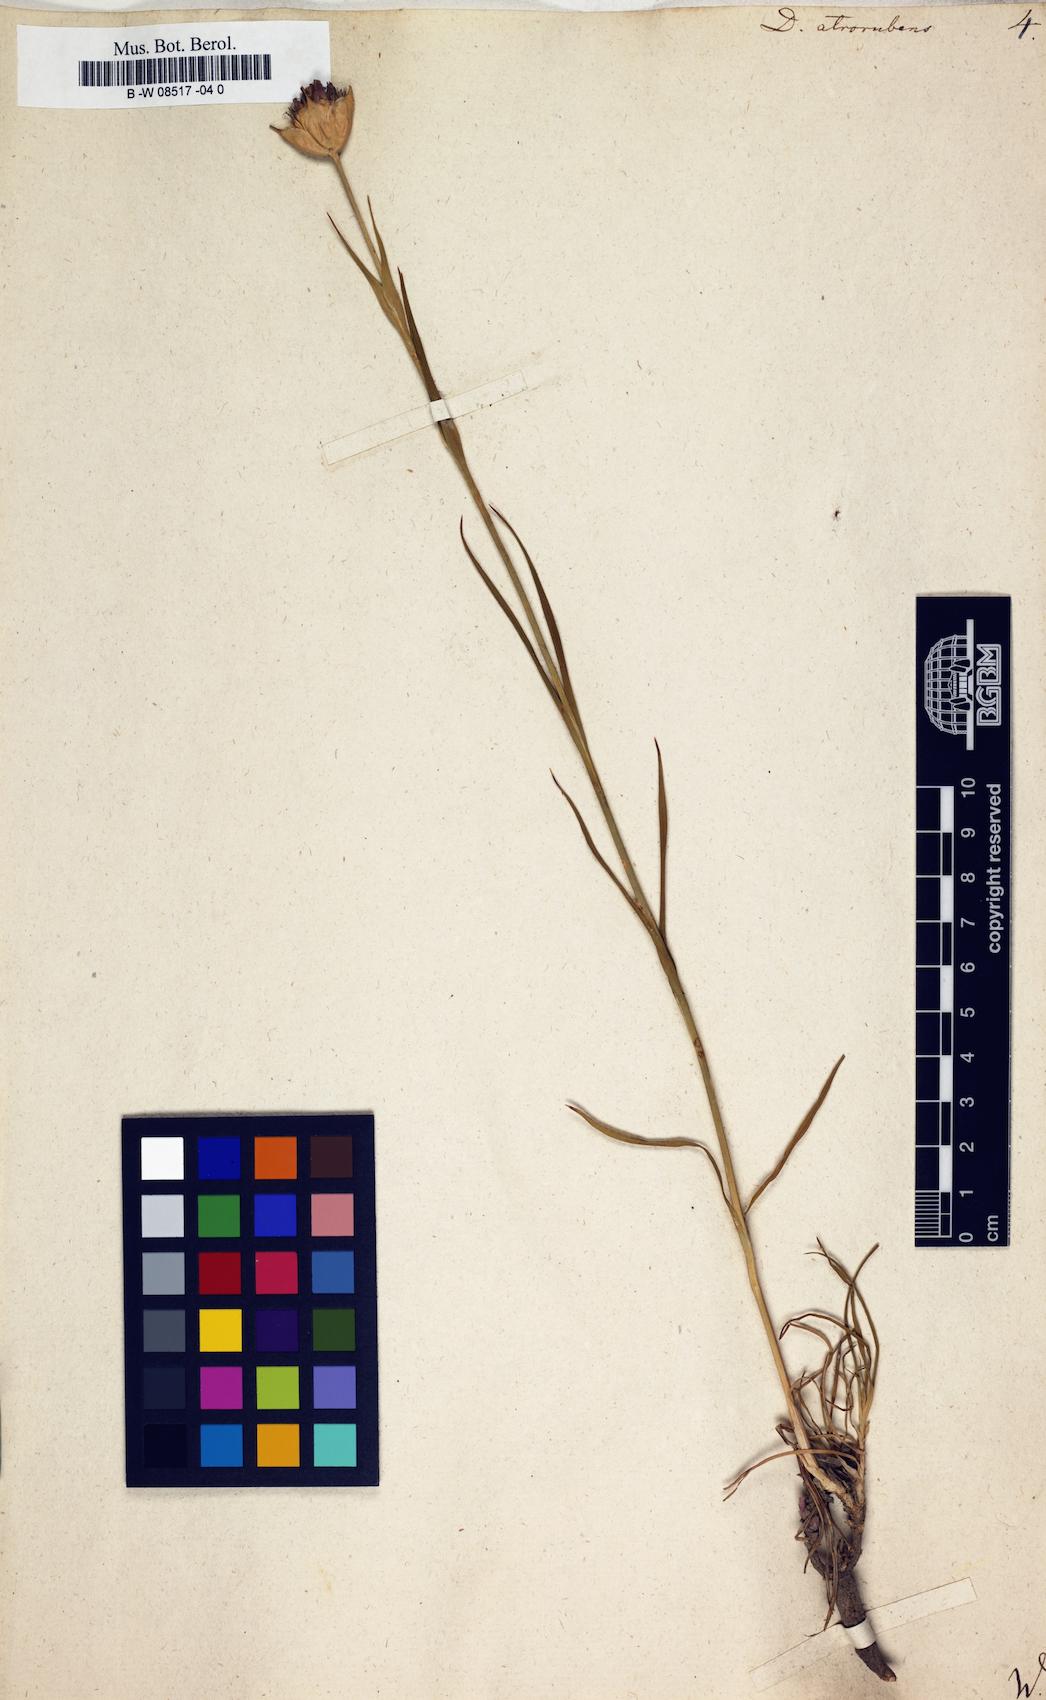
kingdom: Plantae
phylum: Tracheophyta
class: Magnoliopsida
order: Caryophyllales
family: Caryophyllaceae
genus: Dianthus
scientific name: Dianthus atrorubens
